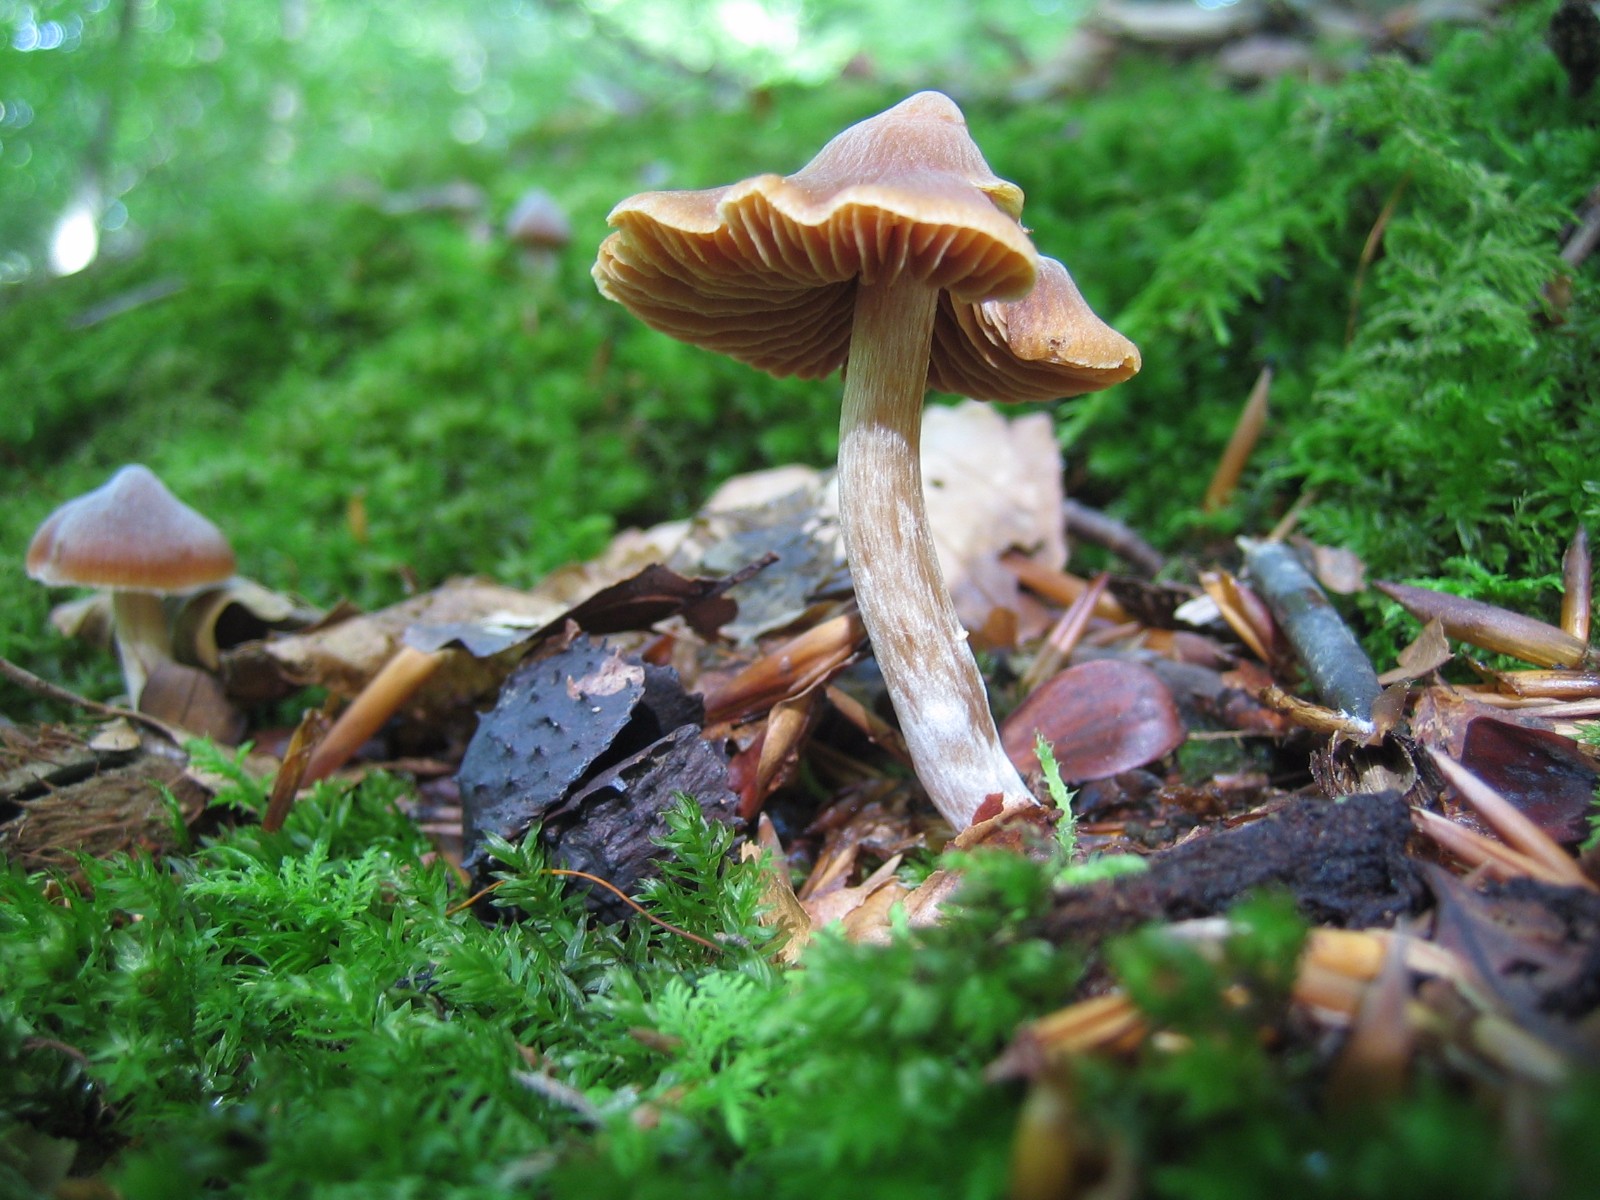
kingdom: Fungi
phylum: Basidiomycota
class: Agaricomycetes
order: Agaricales
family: Cortinariaceae
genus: Cortinarius
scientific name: Cortinarius
